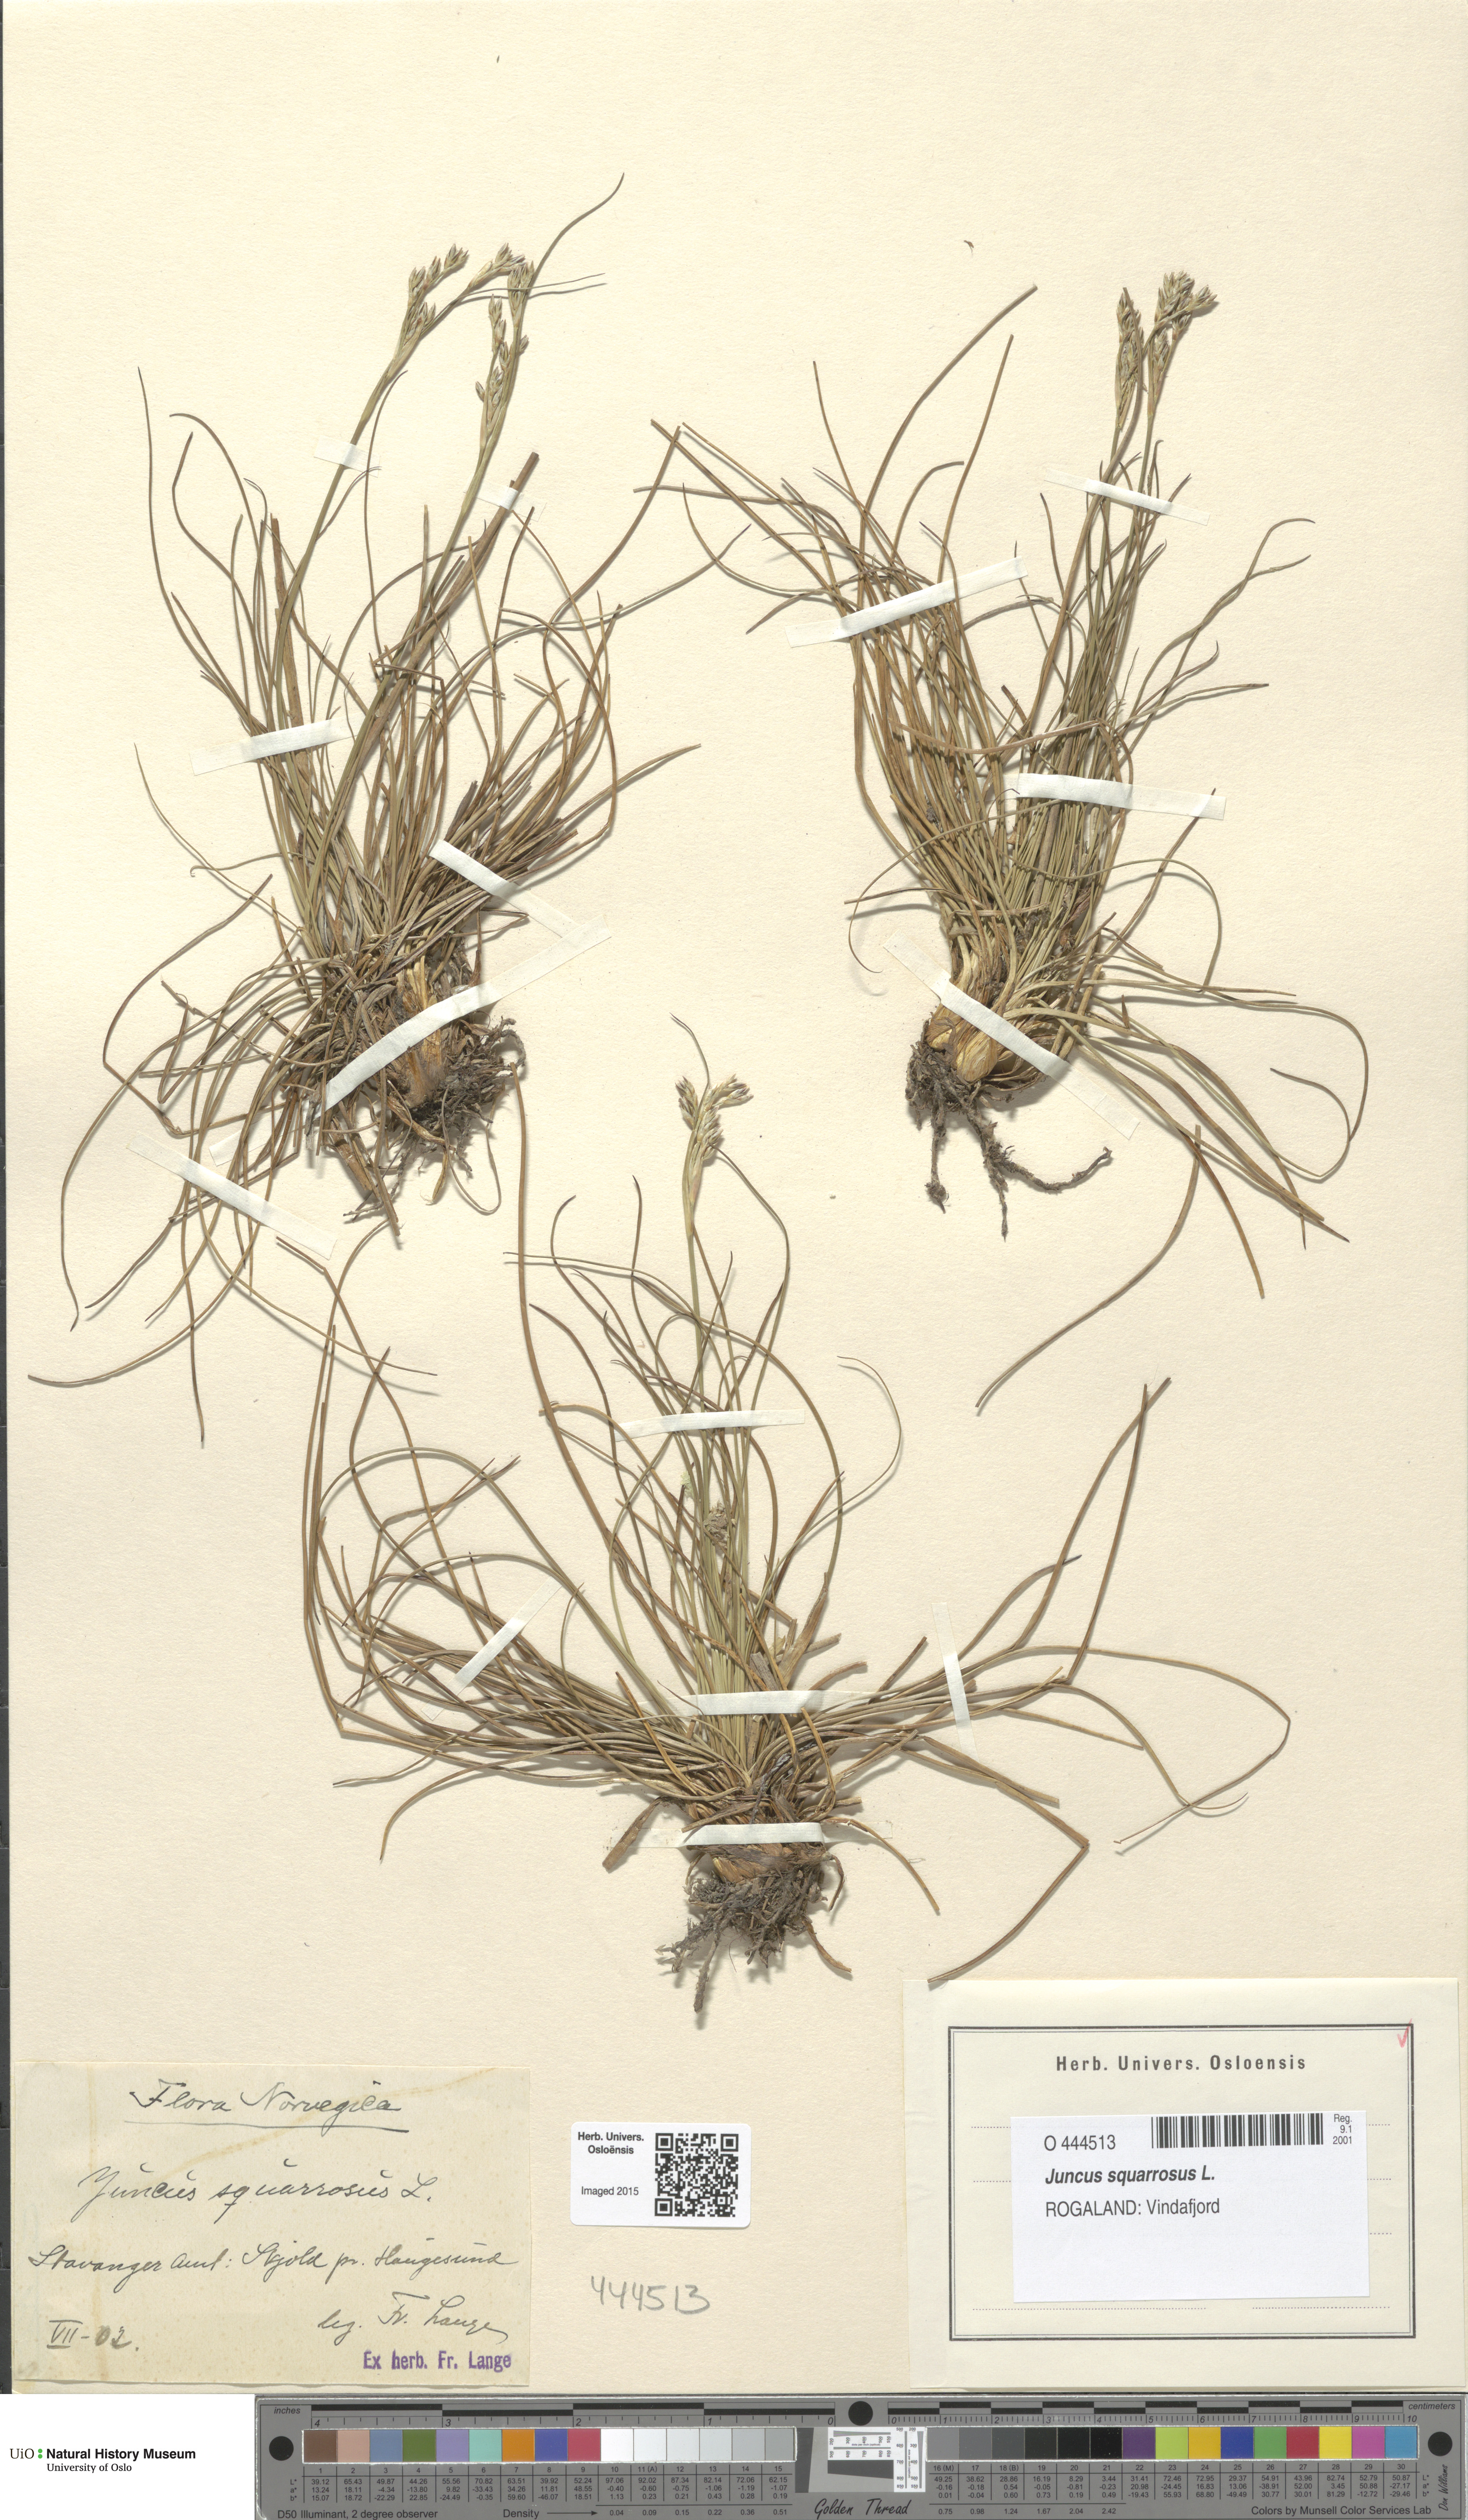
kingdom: Plantae
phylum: Tracheophyta
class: Liliopsida
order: Poales
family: Juncaceae
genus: Juncus
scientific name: Juncus squarrosus
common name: Heath rush
